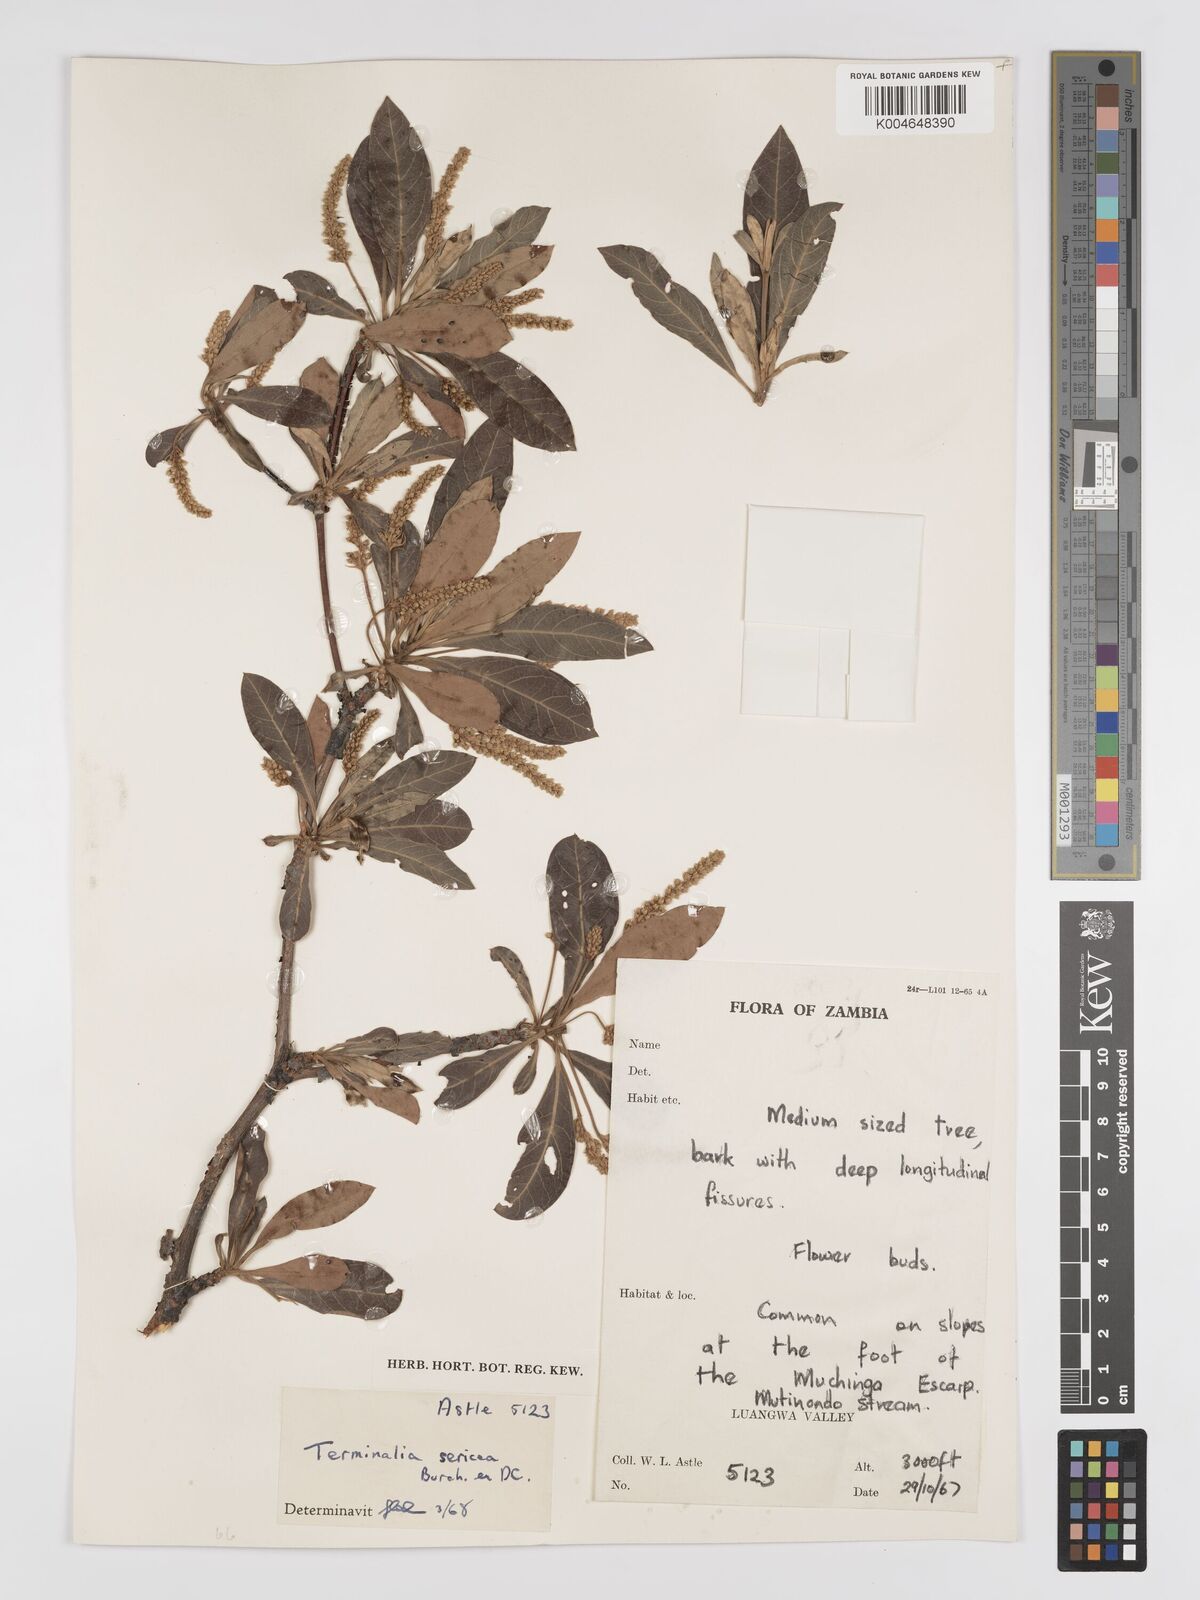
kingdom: Plantae
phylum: Tracheophyta
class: Magnoliopsida
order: Myrtales
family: Combretaceae
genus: Terminalia
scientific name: Terminalia
